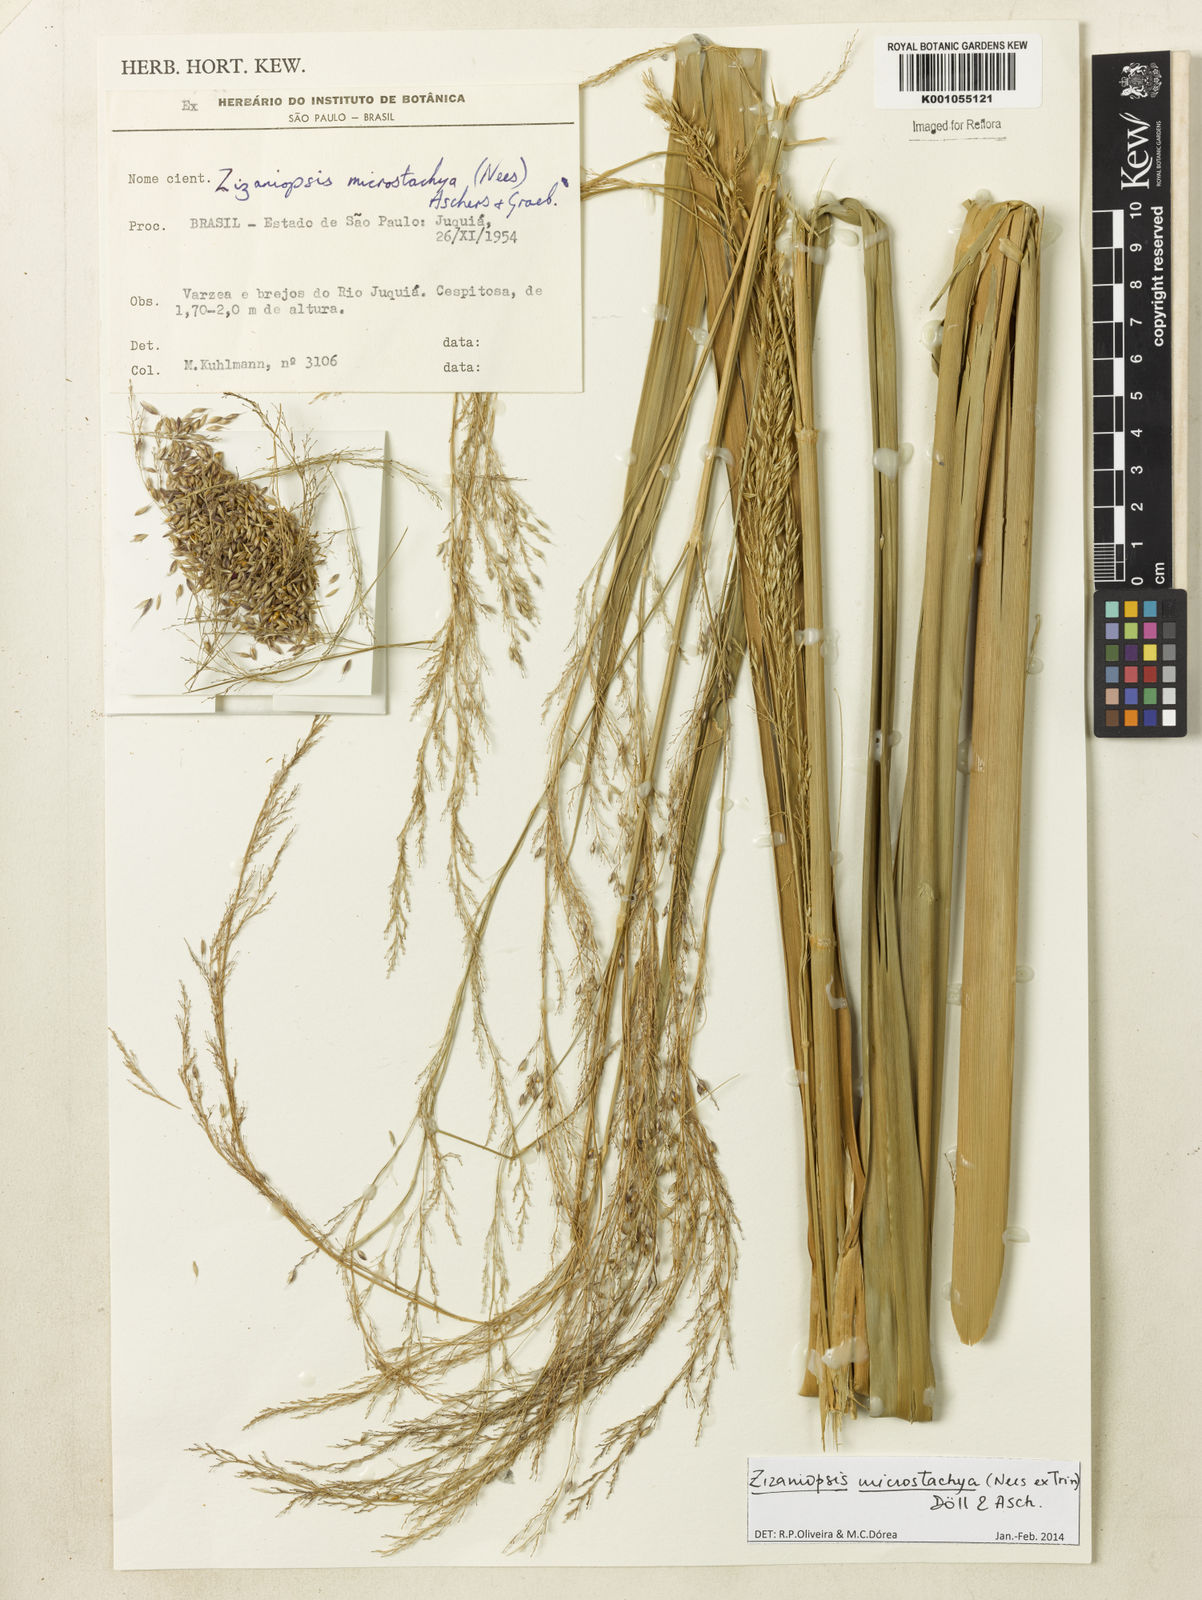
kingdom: Plantae
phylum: Tracheophyta
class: Liliopsida
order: Poales
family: Poaceae
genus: Zizaniopsis
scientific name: Zizaniopsis
